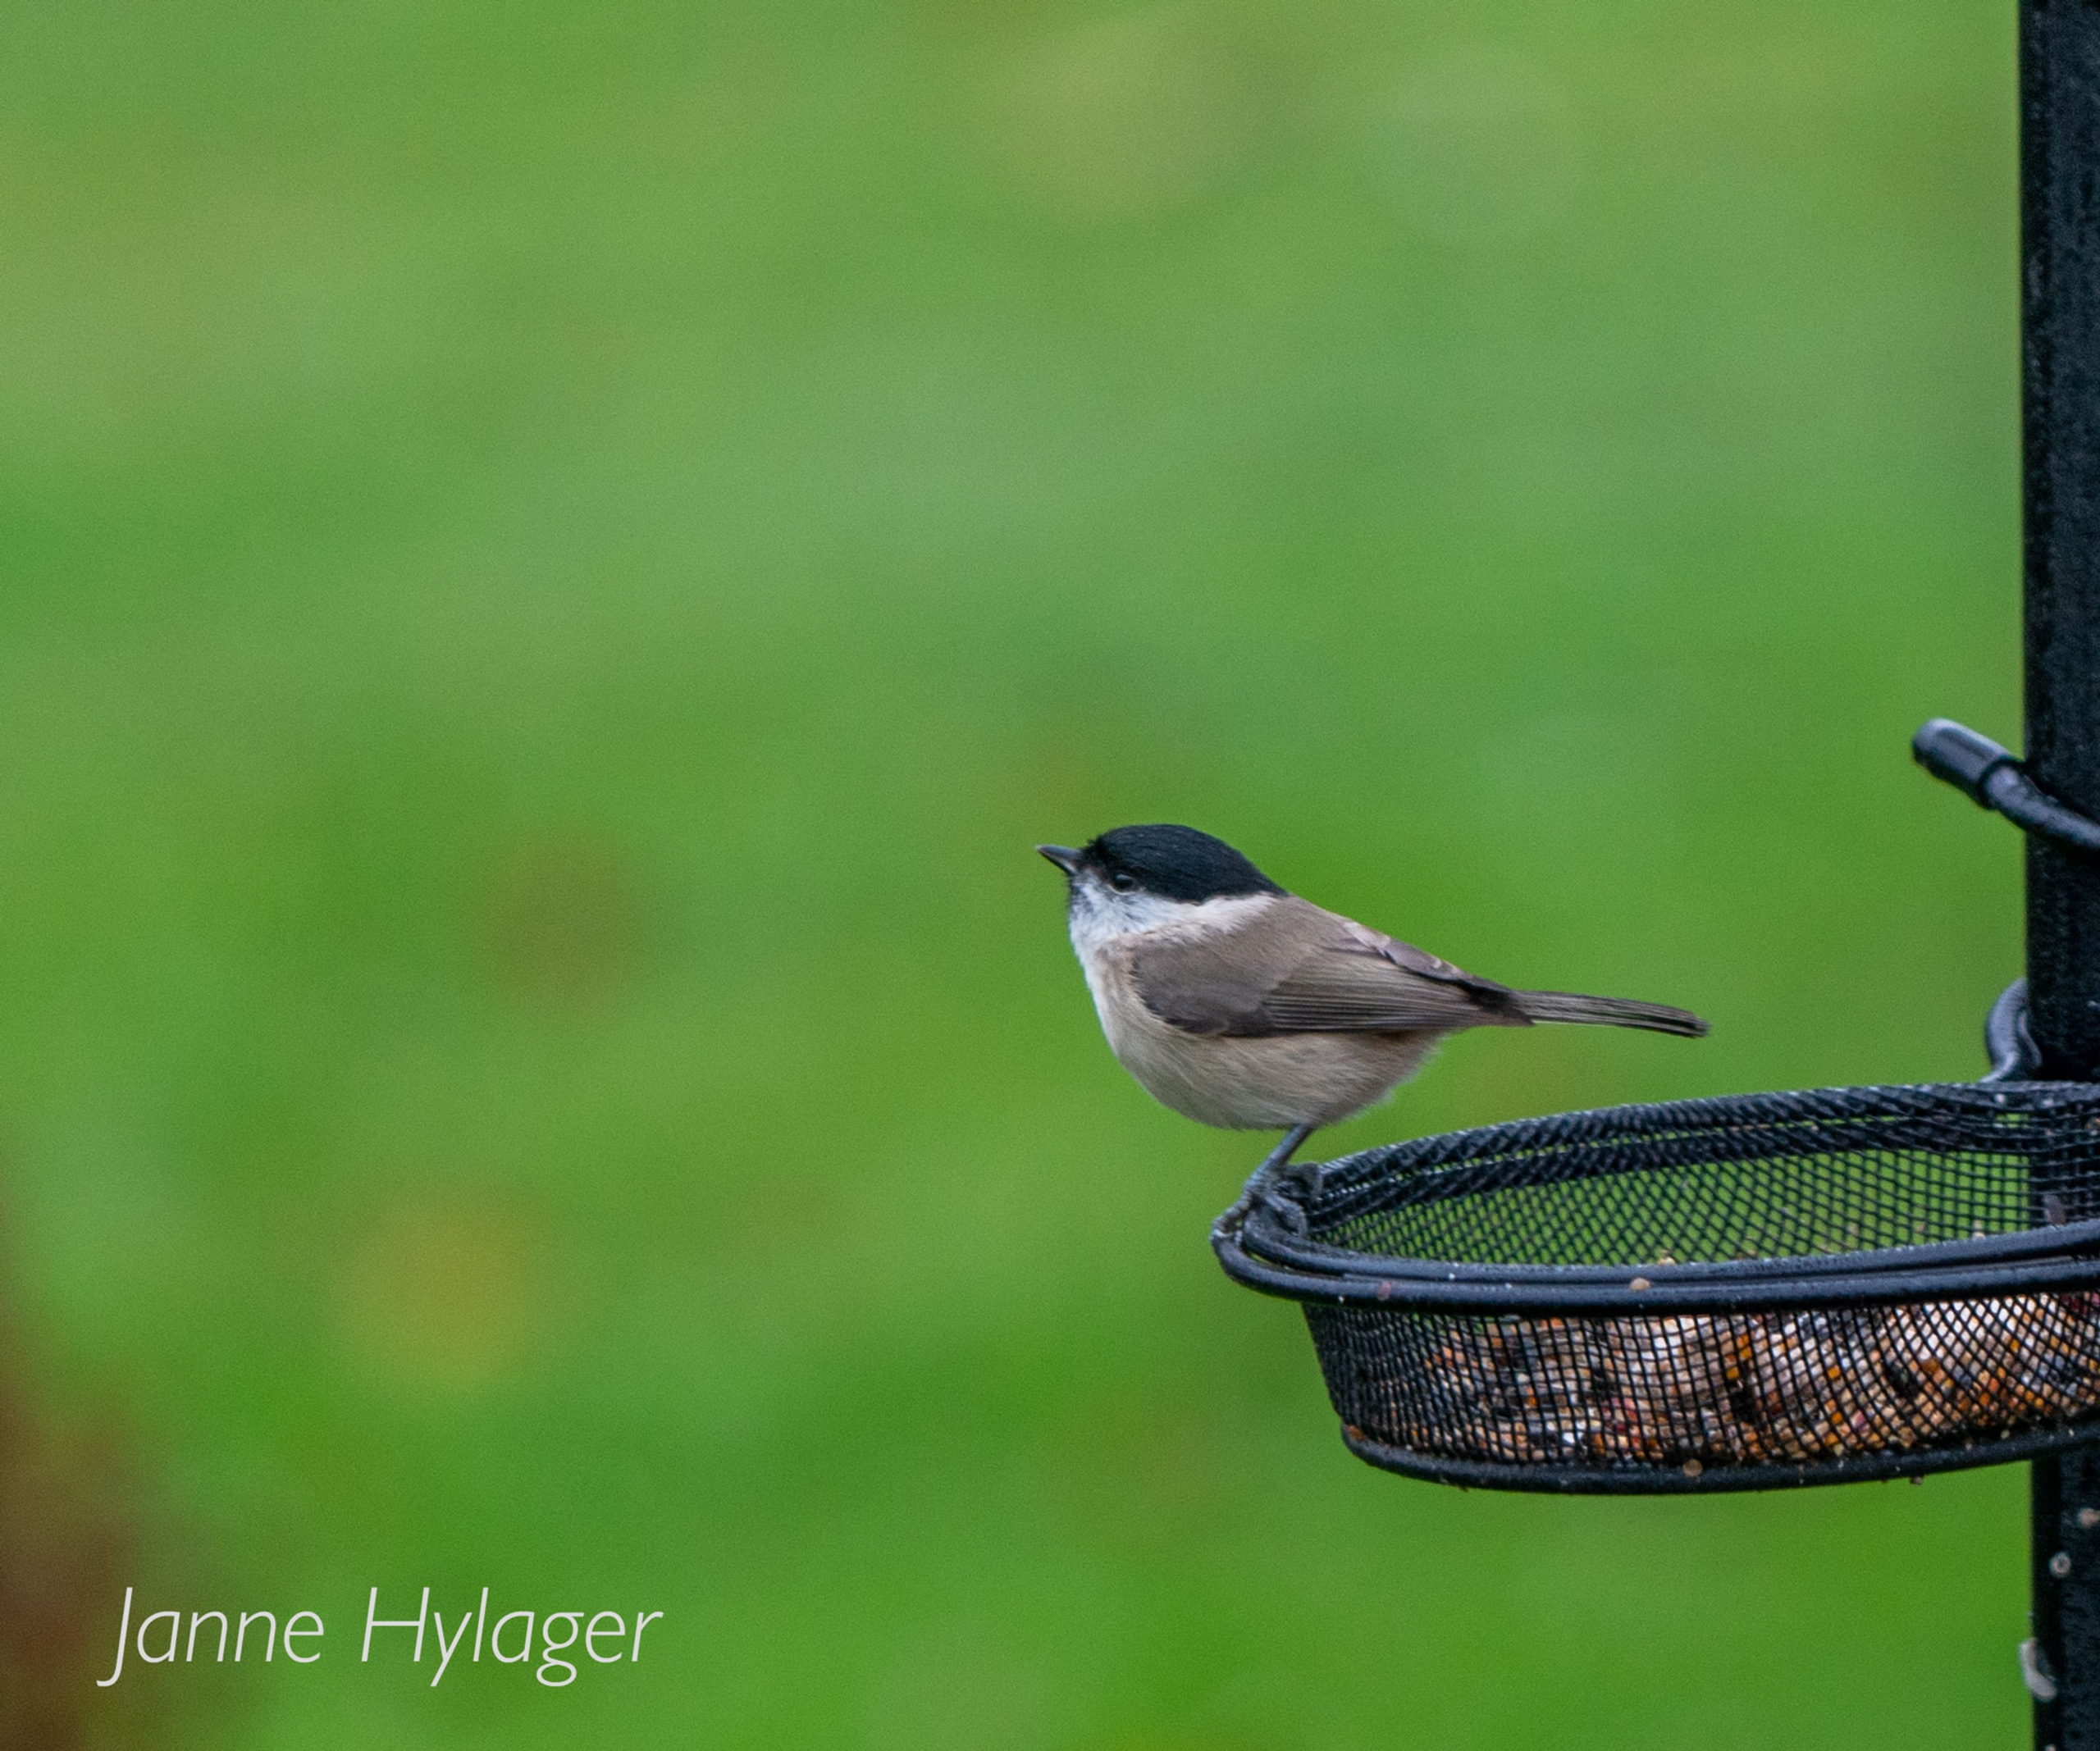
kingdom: Animalia
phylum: Chordata
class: Aves
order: Passeriformes
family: Paridae
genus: Poecile
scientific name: Poecile palustris
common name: Sumpmejse
